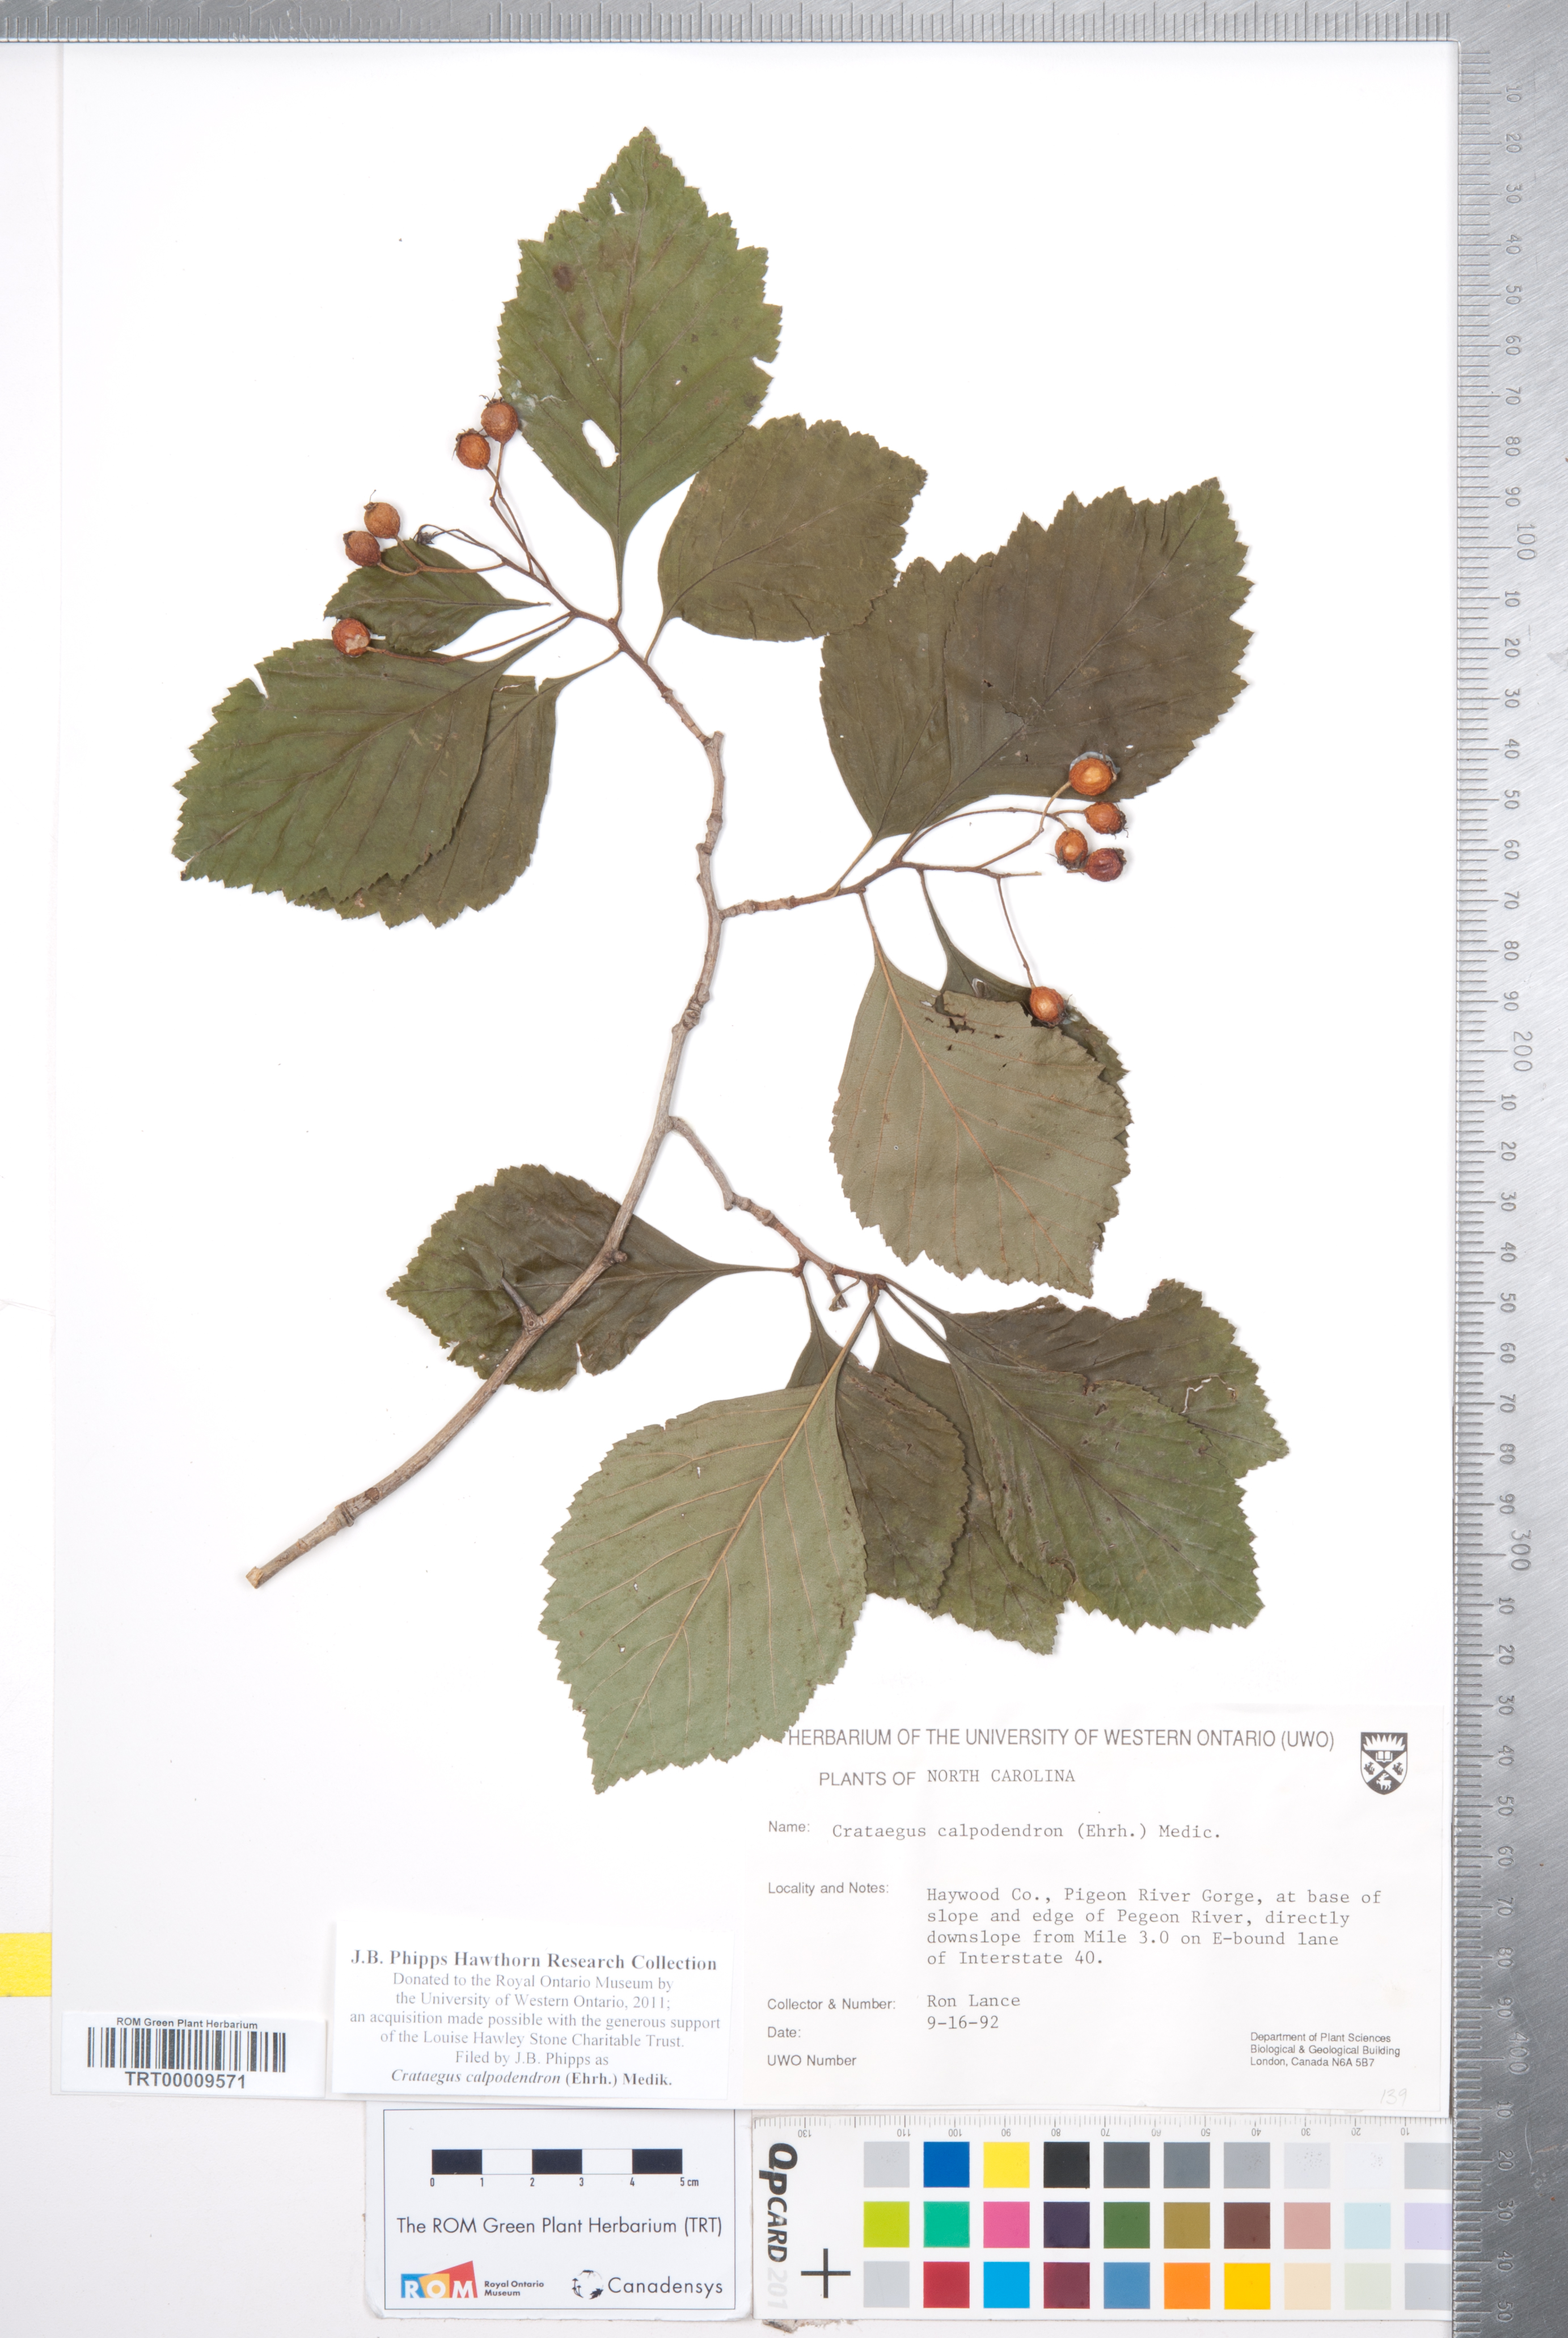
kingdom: Plantae
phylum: Tracheophyta
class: Magnoliopsida
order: Rosales
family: Rosaceae
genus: Crataegus
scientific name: Crataegus calpodendron
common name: Pear hawthorn
